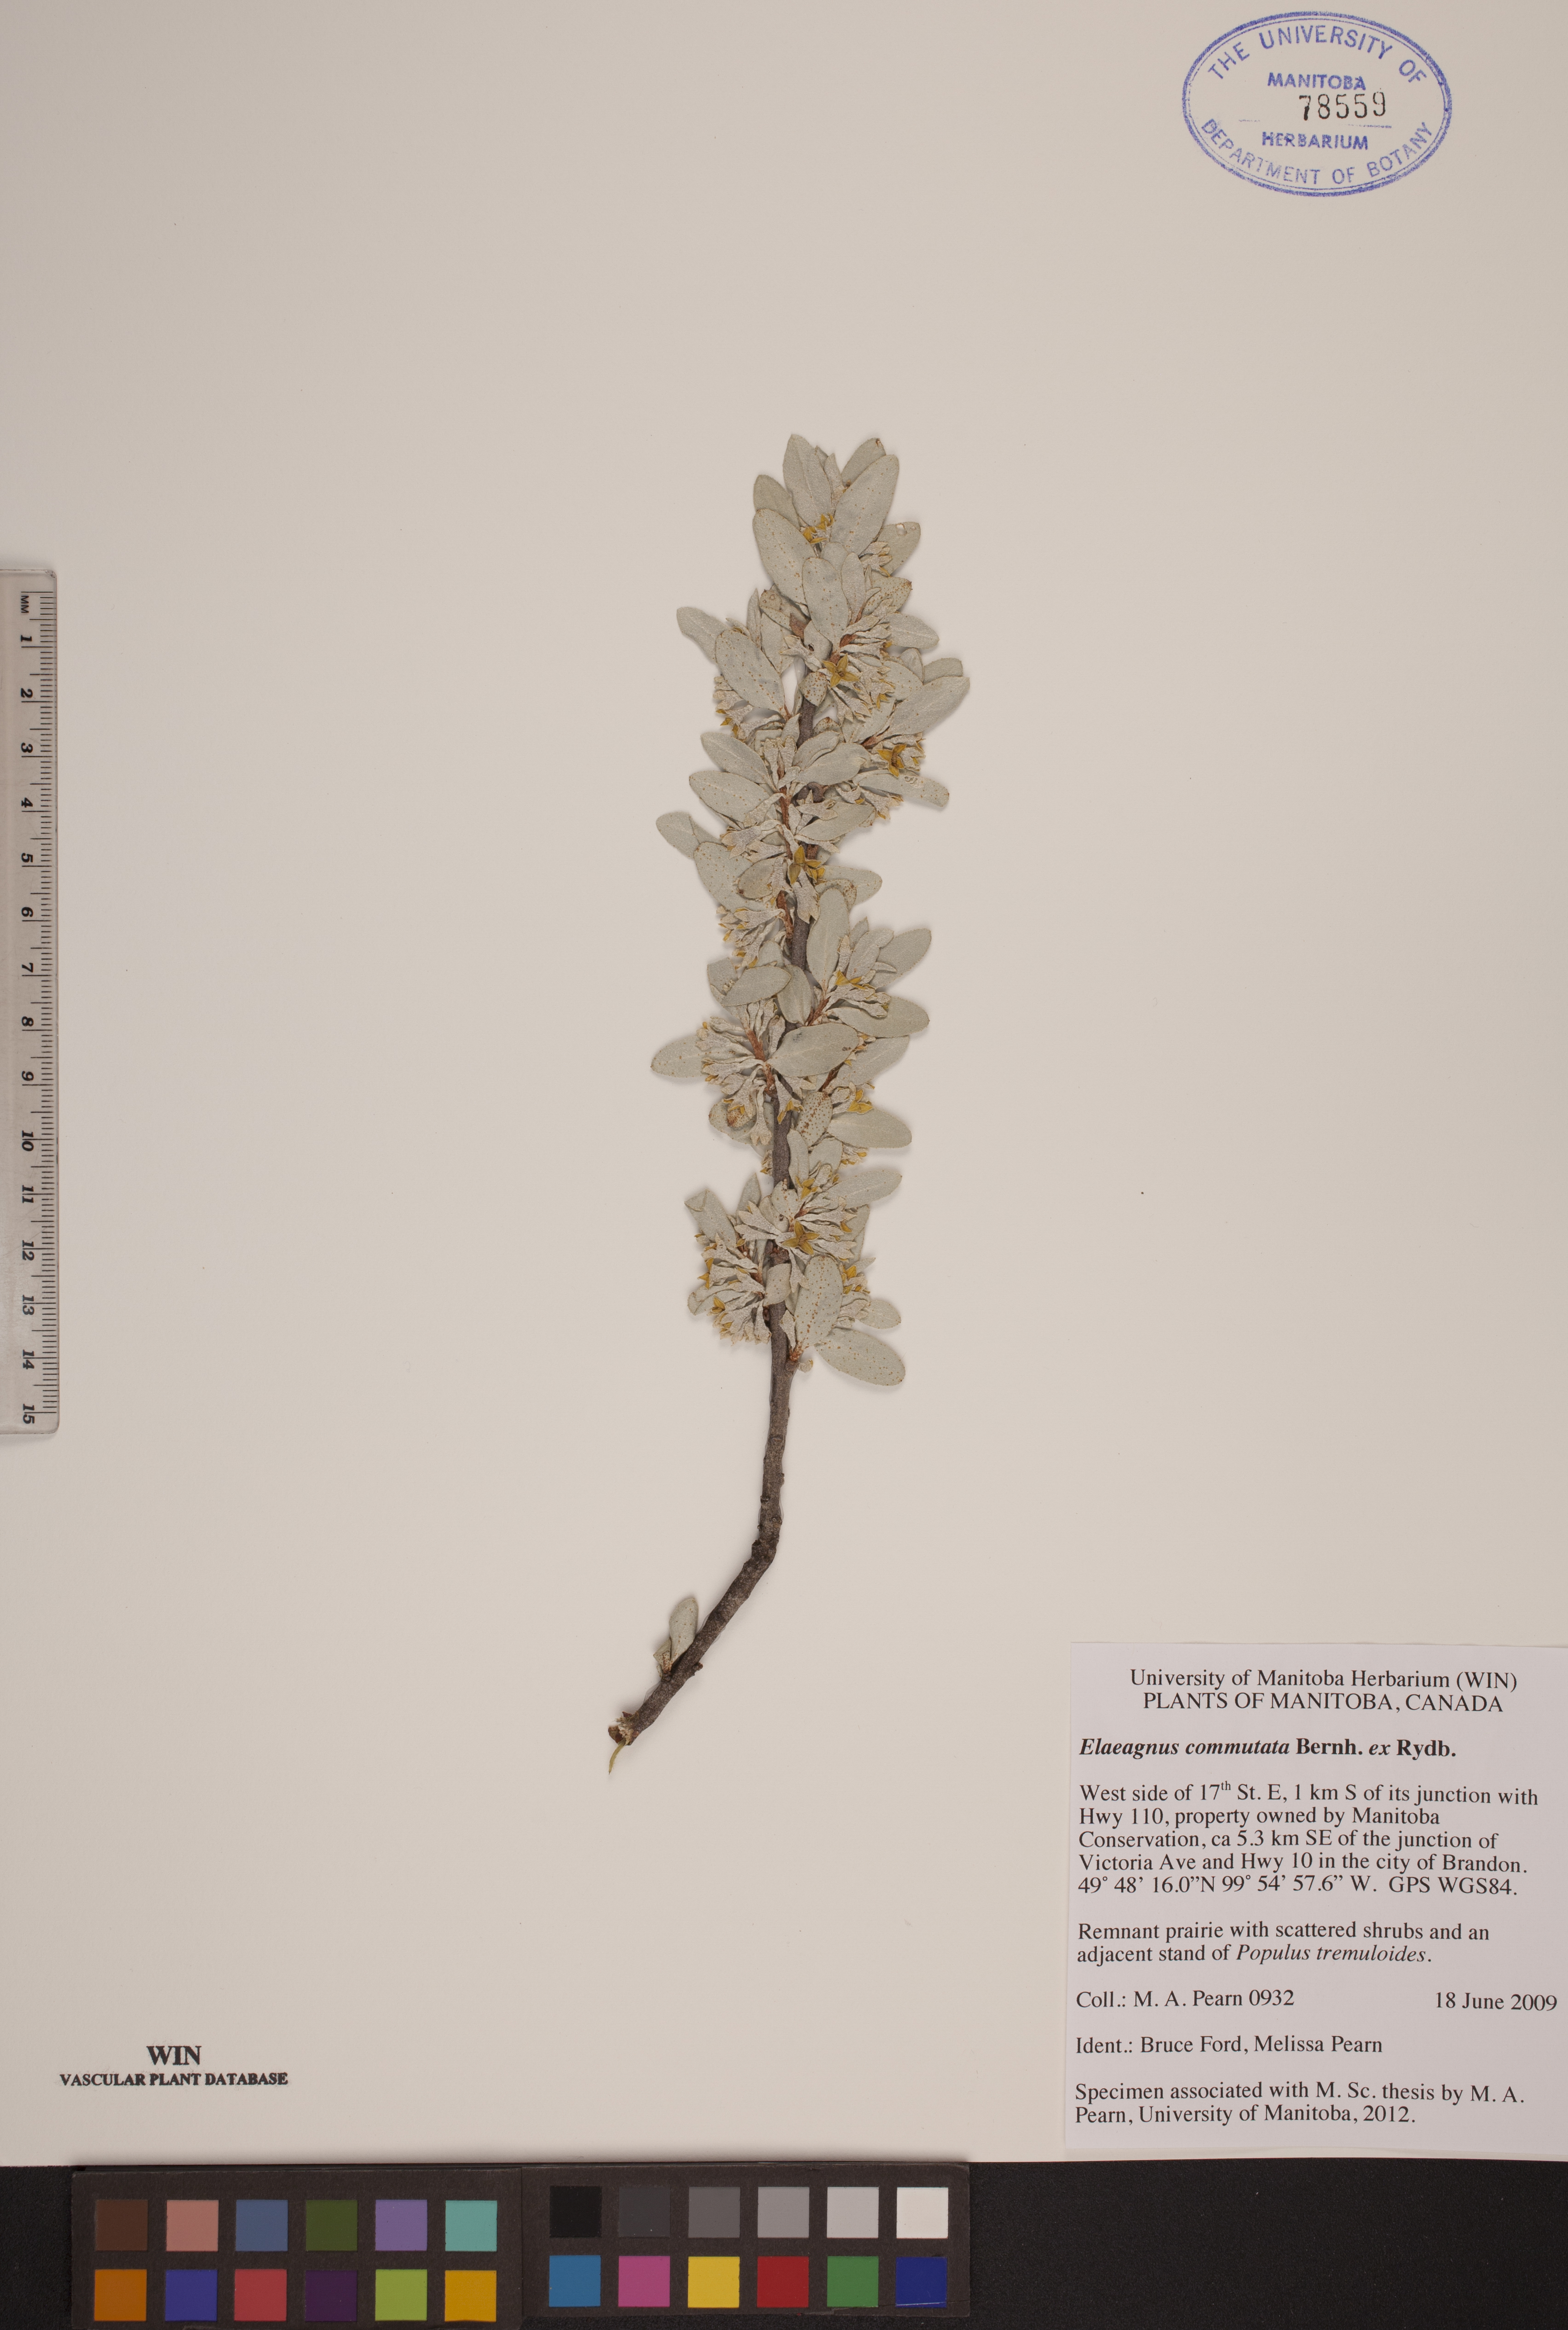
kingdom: Plantae
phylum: Tracheophyta
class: Magnoliopsida
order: Rosales
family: Elaeagnaceae
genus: Elaeagnus
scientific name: Elaeagnus commutata
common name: Silverberry
